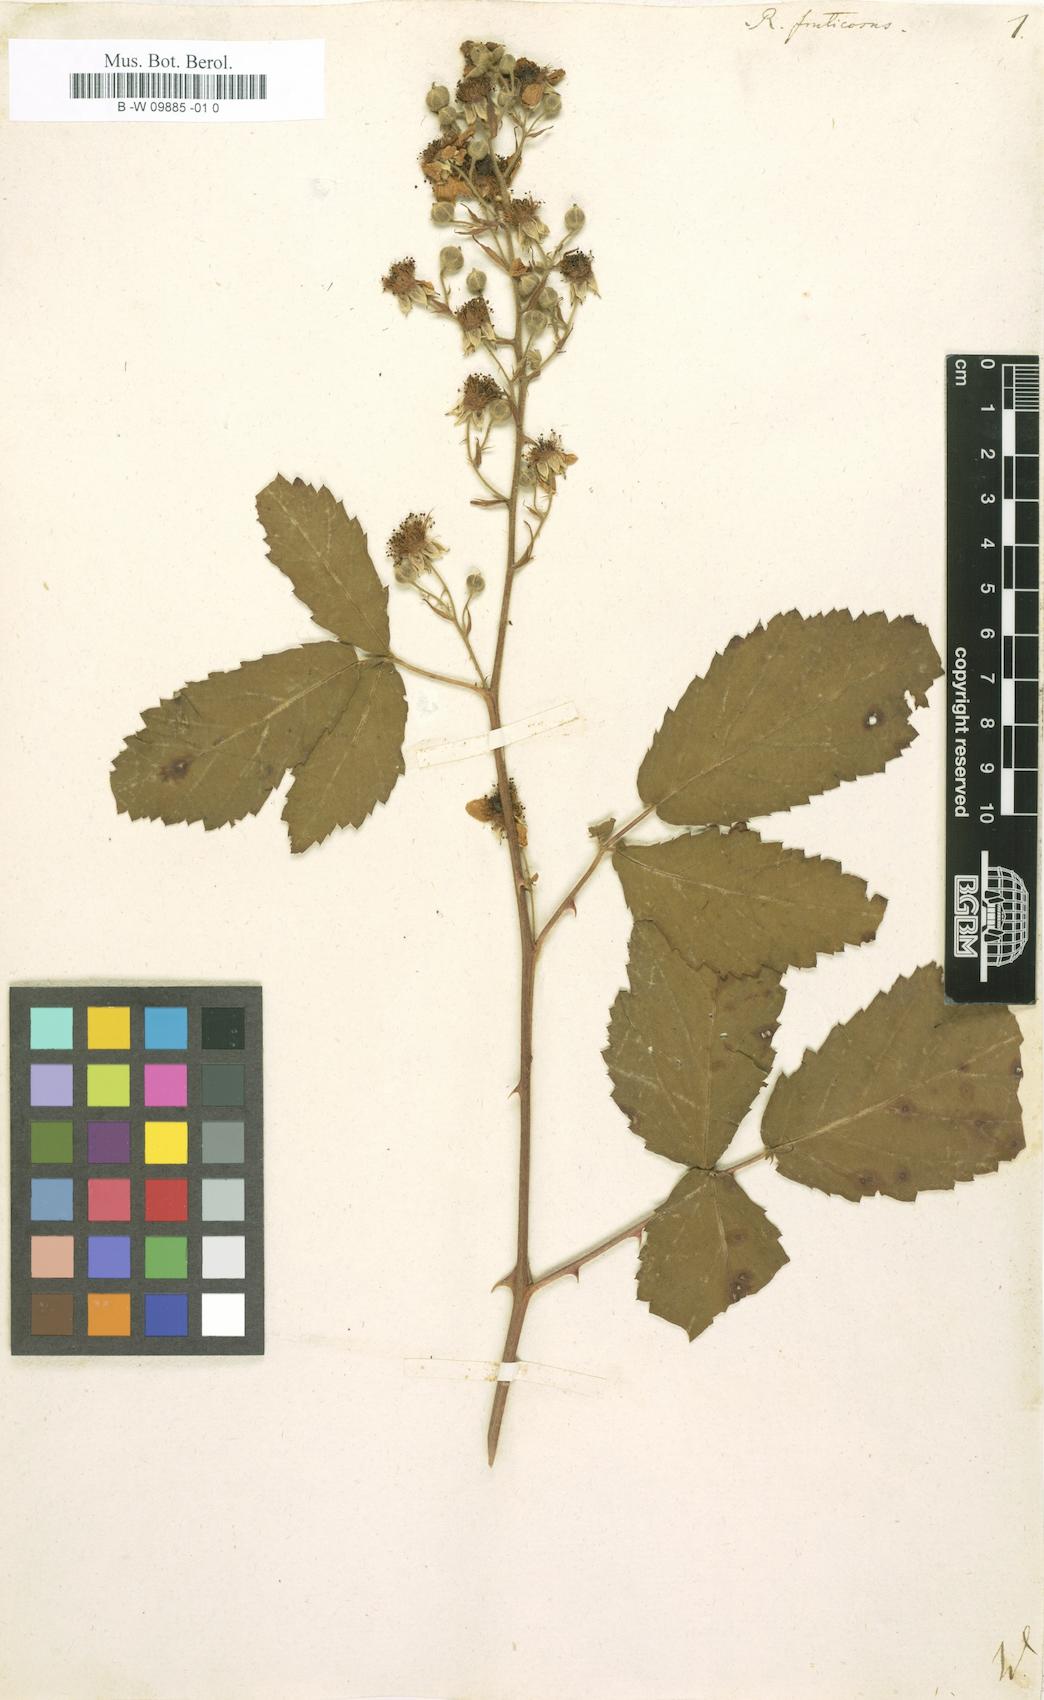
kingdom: Plantae
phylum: Tracheophyta
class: Magnoliopsida
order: Rosales
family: Rosaceae
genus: Rubus
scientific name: Rubus fruticosus
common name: Blackberry, bramble
